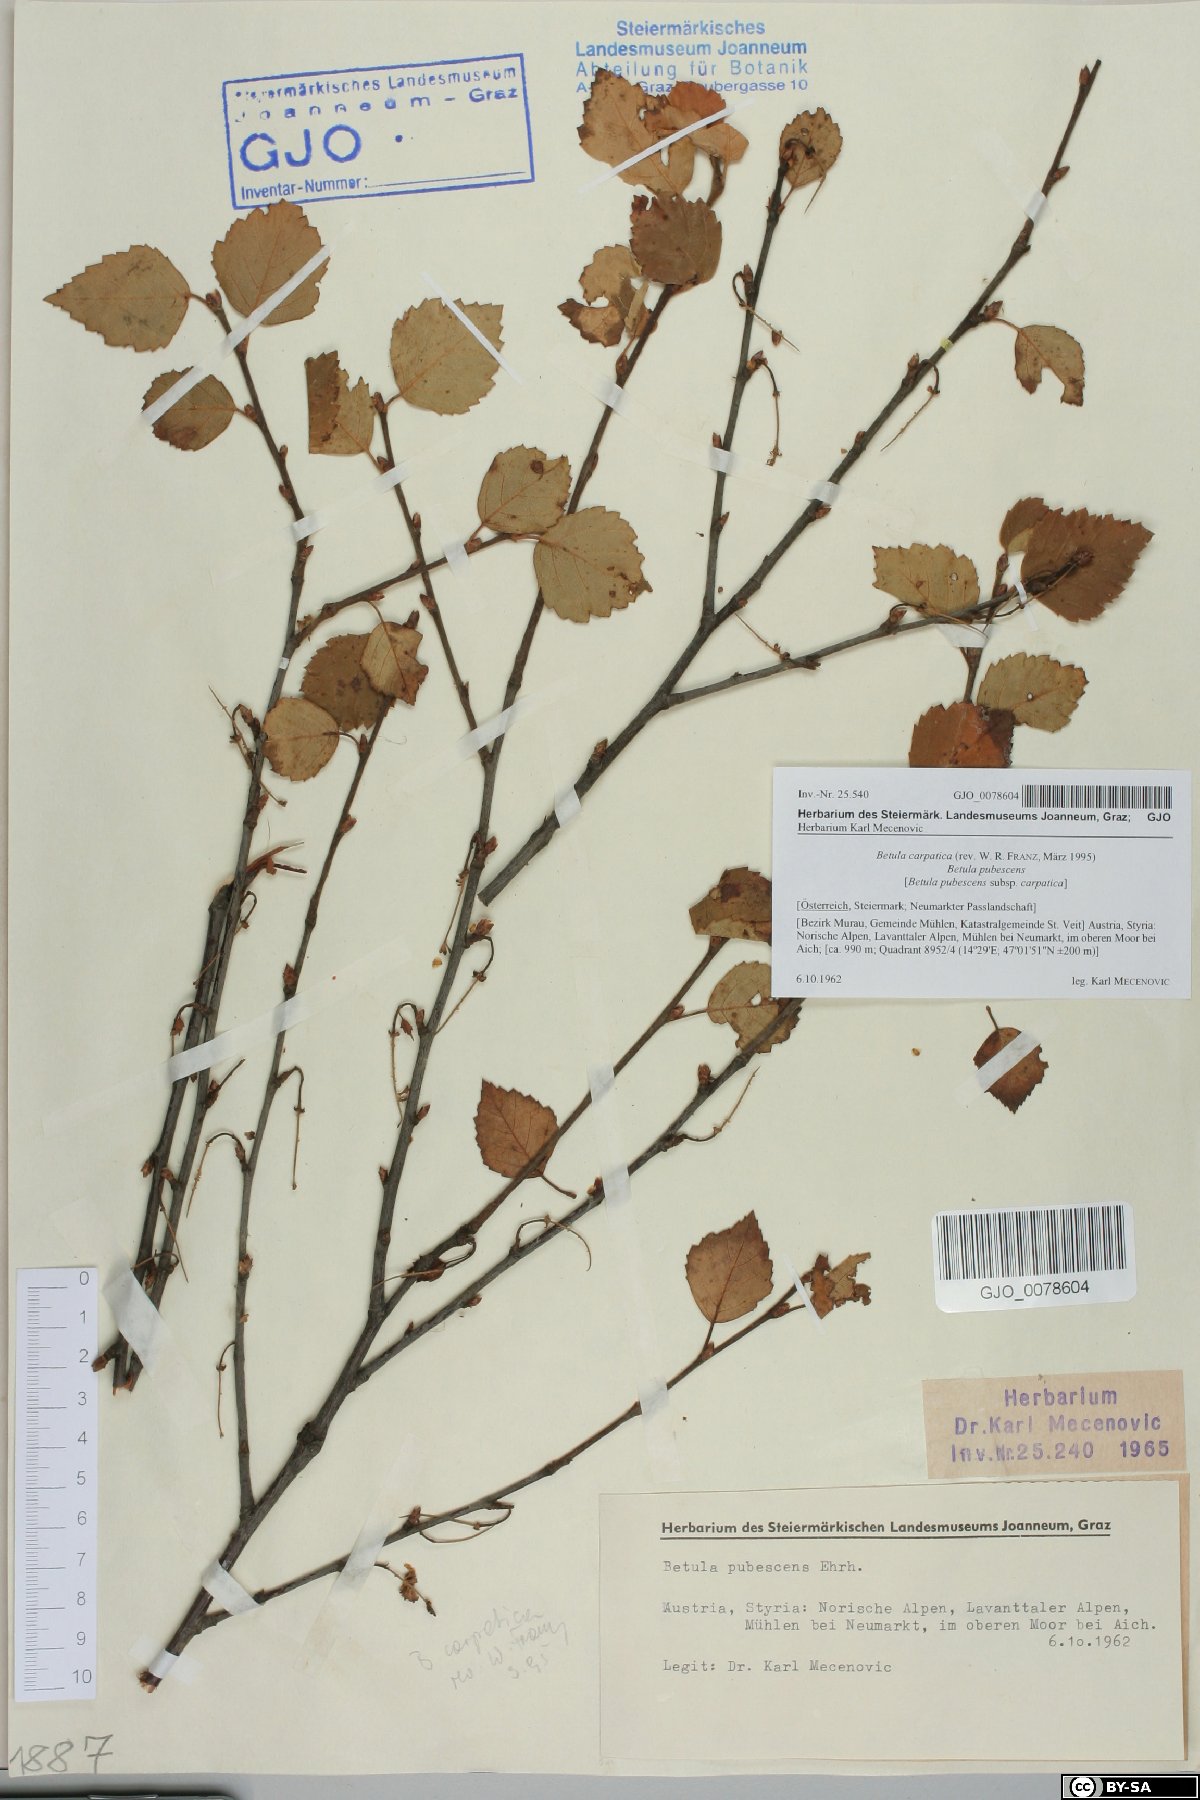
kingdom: Plantae
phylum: Tracheophyta
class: Magnoliopsida
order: Fagales
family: Betulaceae
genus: Betula
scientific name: Betula pubescens
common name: Downy birch
